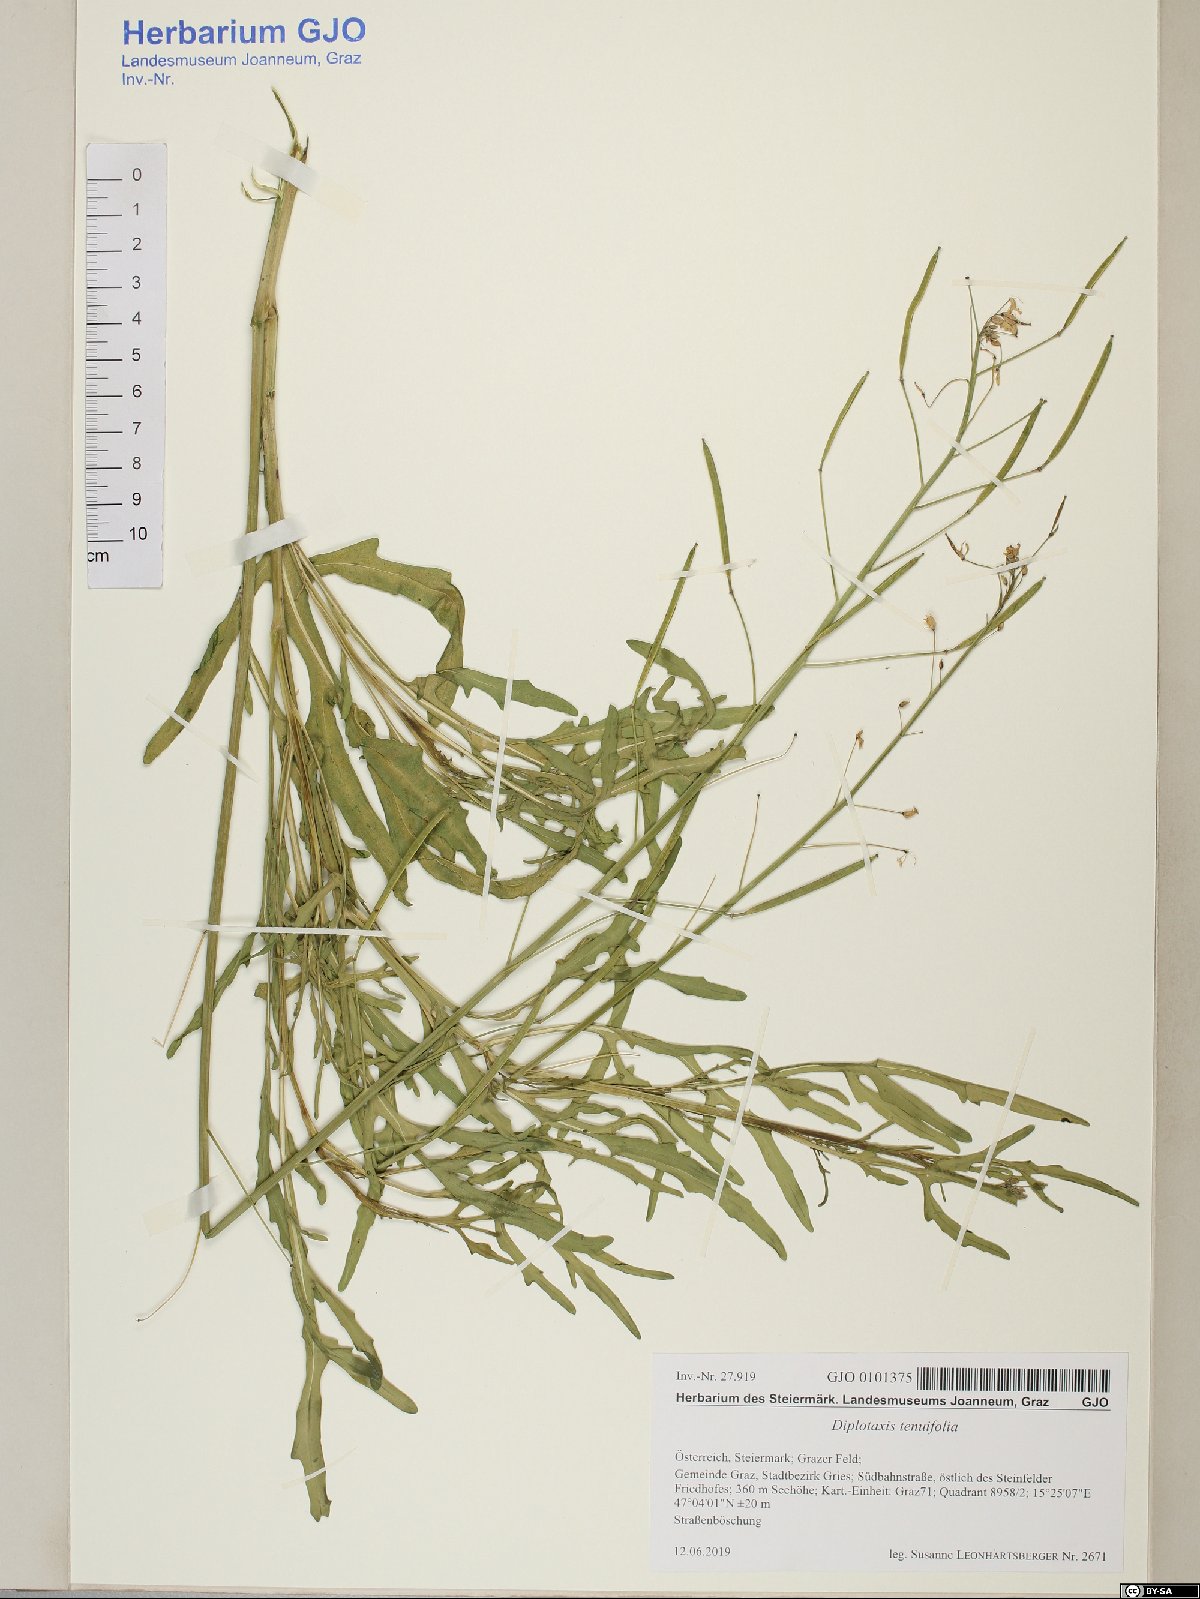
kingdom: Plantae
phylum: Tracheophyta
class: Magnoliopsida
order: Brassicales
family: Brassicaceae
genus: Diplotaxis
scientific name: Diplotaxis tenuifolia
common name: Perennial wall-rocket
